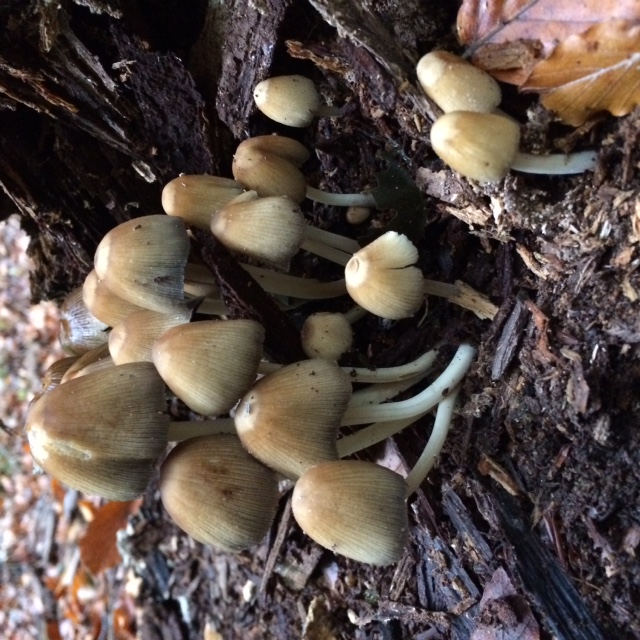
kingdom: Fungi
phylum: Basidiomycota
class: Agaricomycetes
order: Agaricales
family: Psathyrellaceae
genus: Coprinellus
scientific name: Coprinellus micaceus
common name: glimmer-blækhat
